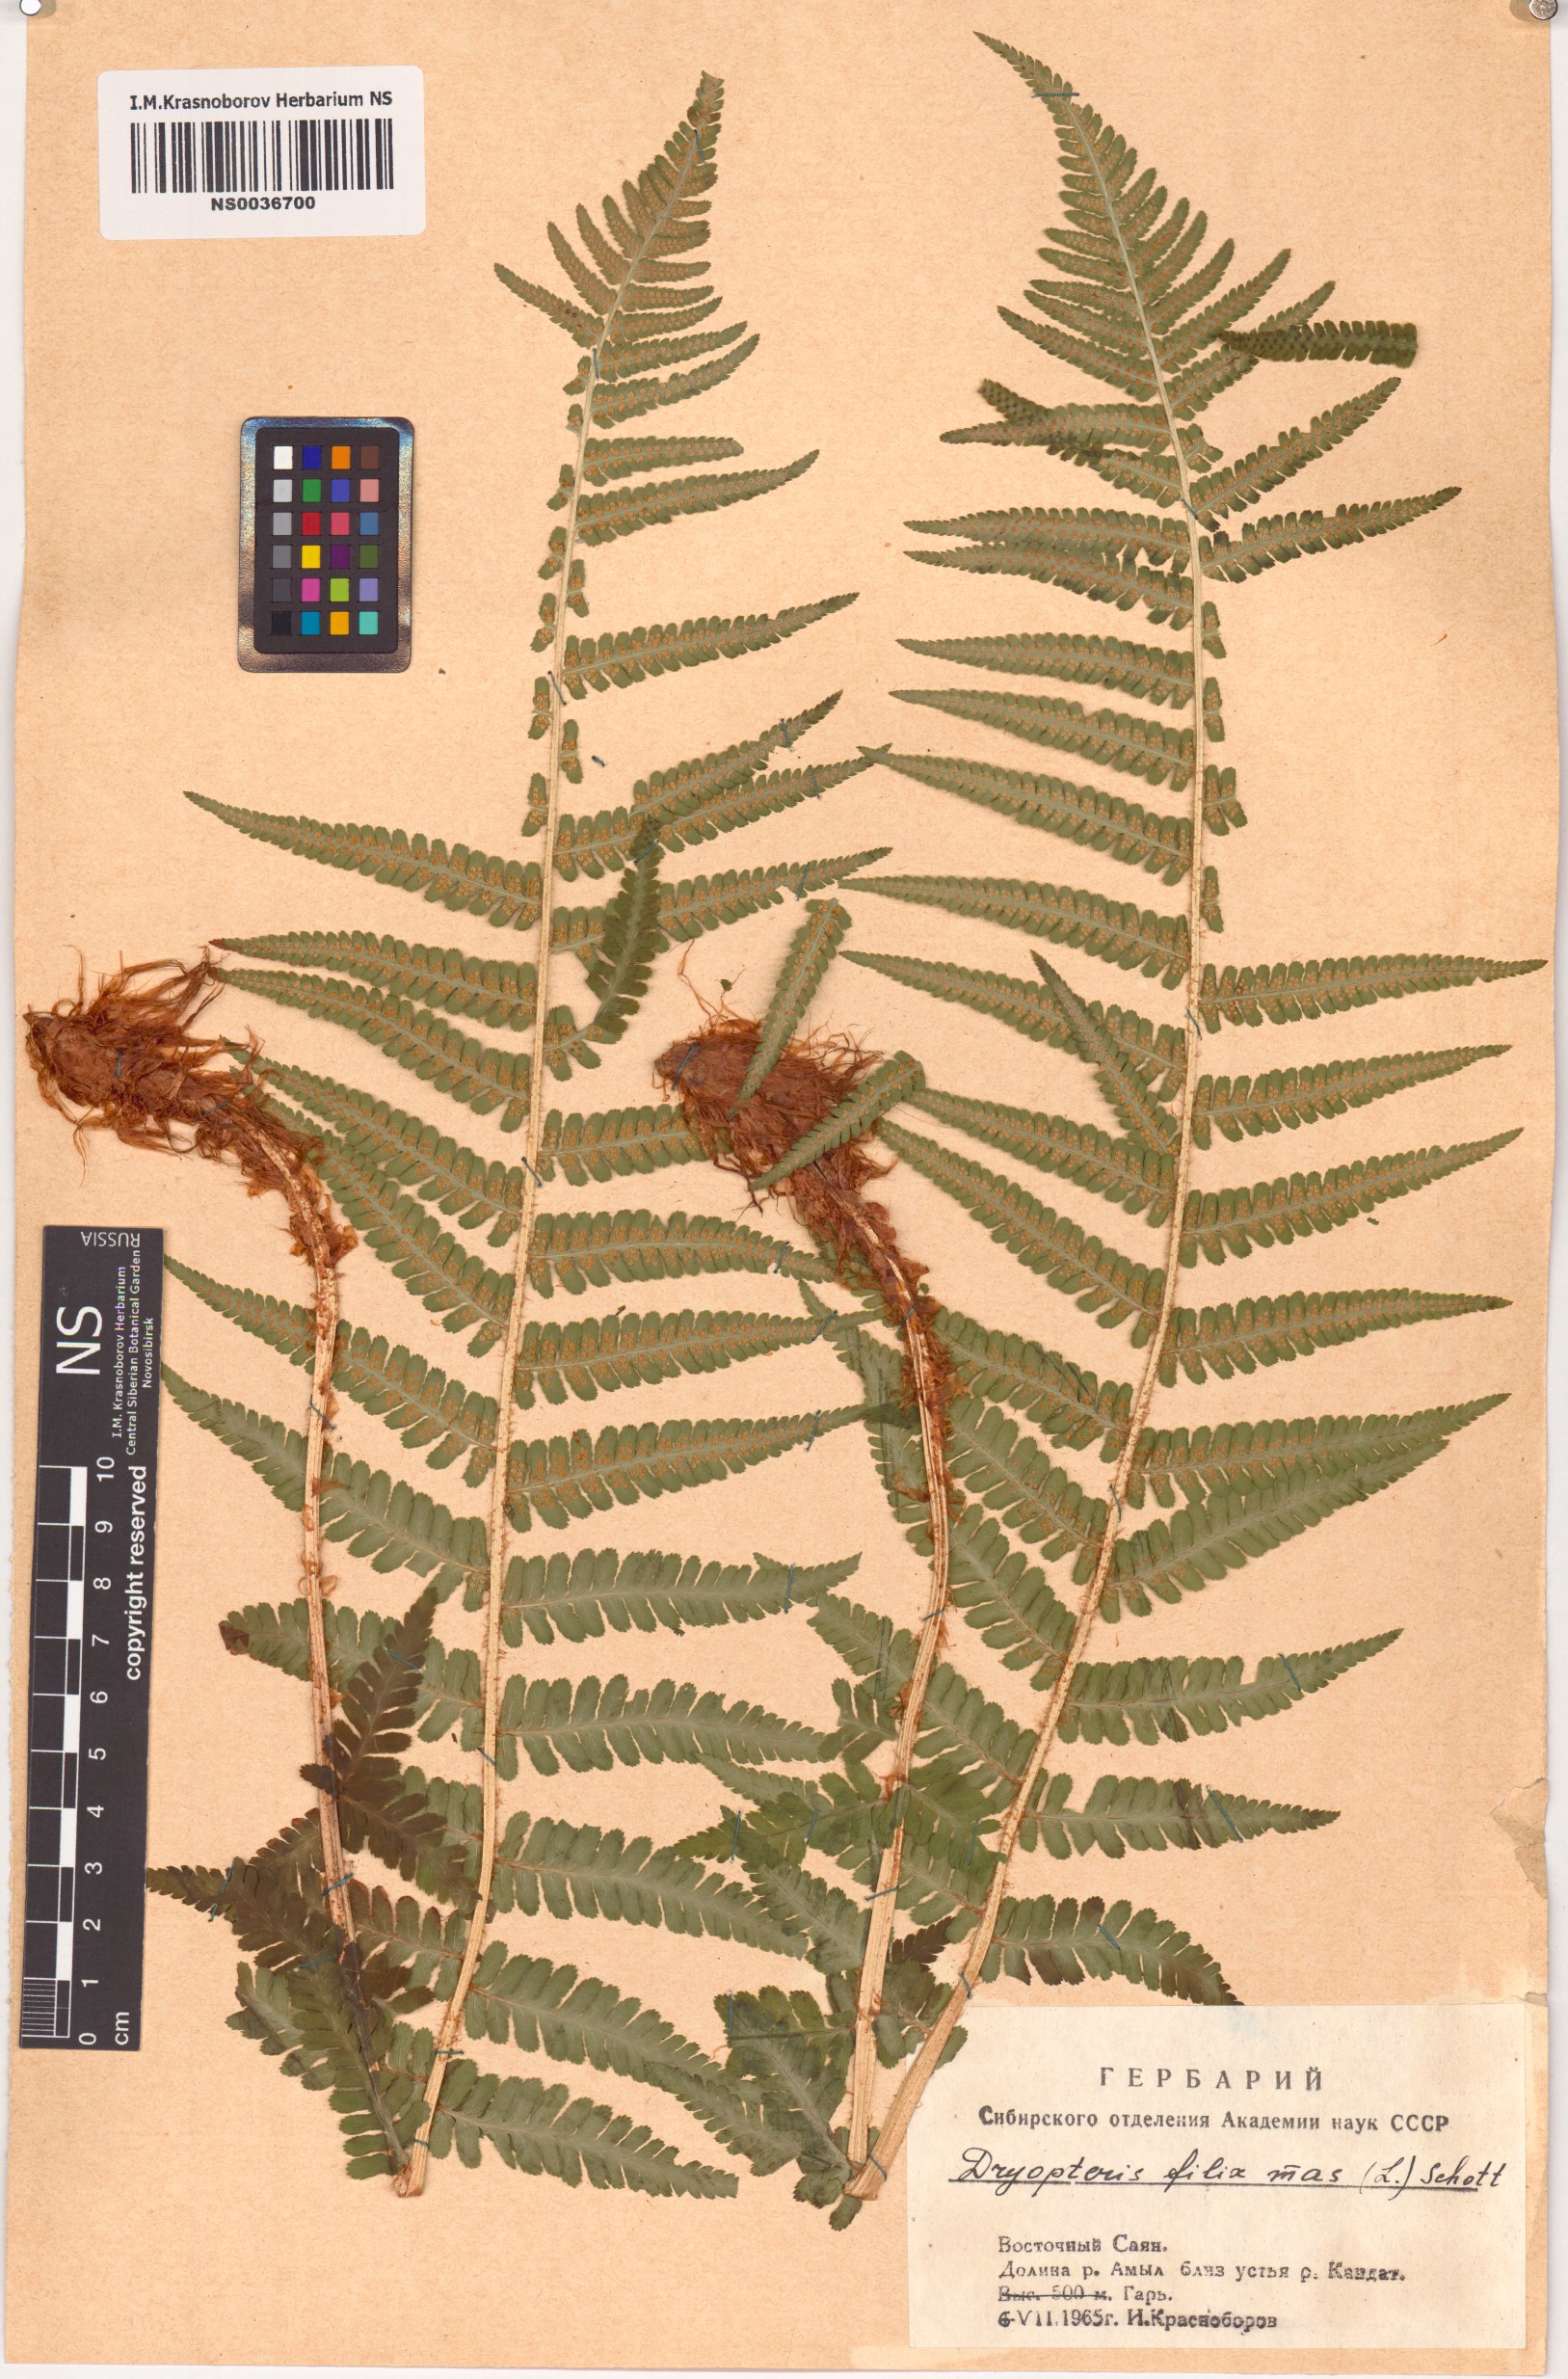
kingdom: Plantae
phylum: Tracheophyta
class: Polypodiopsida
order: Polypodiales
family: Dryopteridaceae
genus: Dryopteris
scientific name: Dryopteris filix-mas
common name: Male fern
